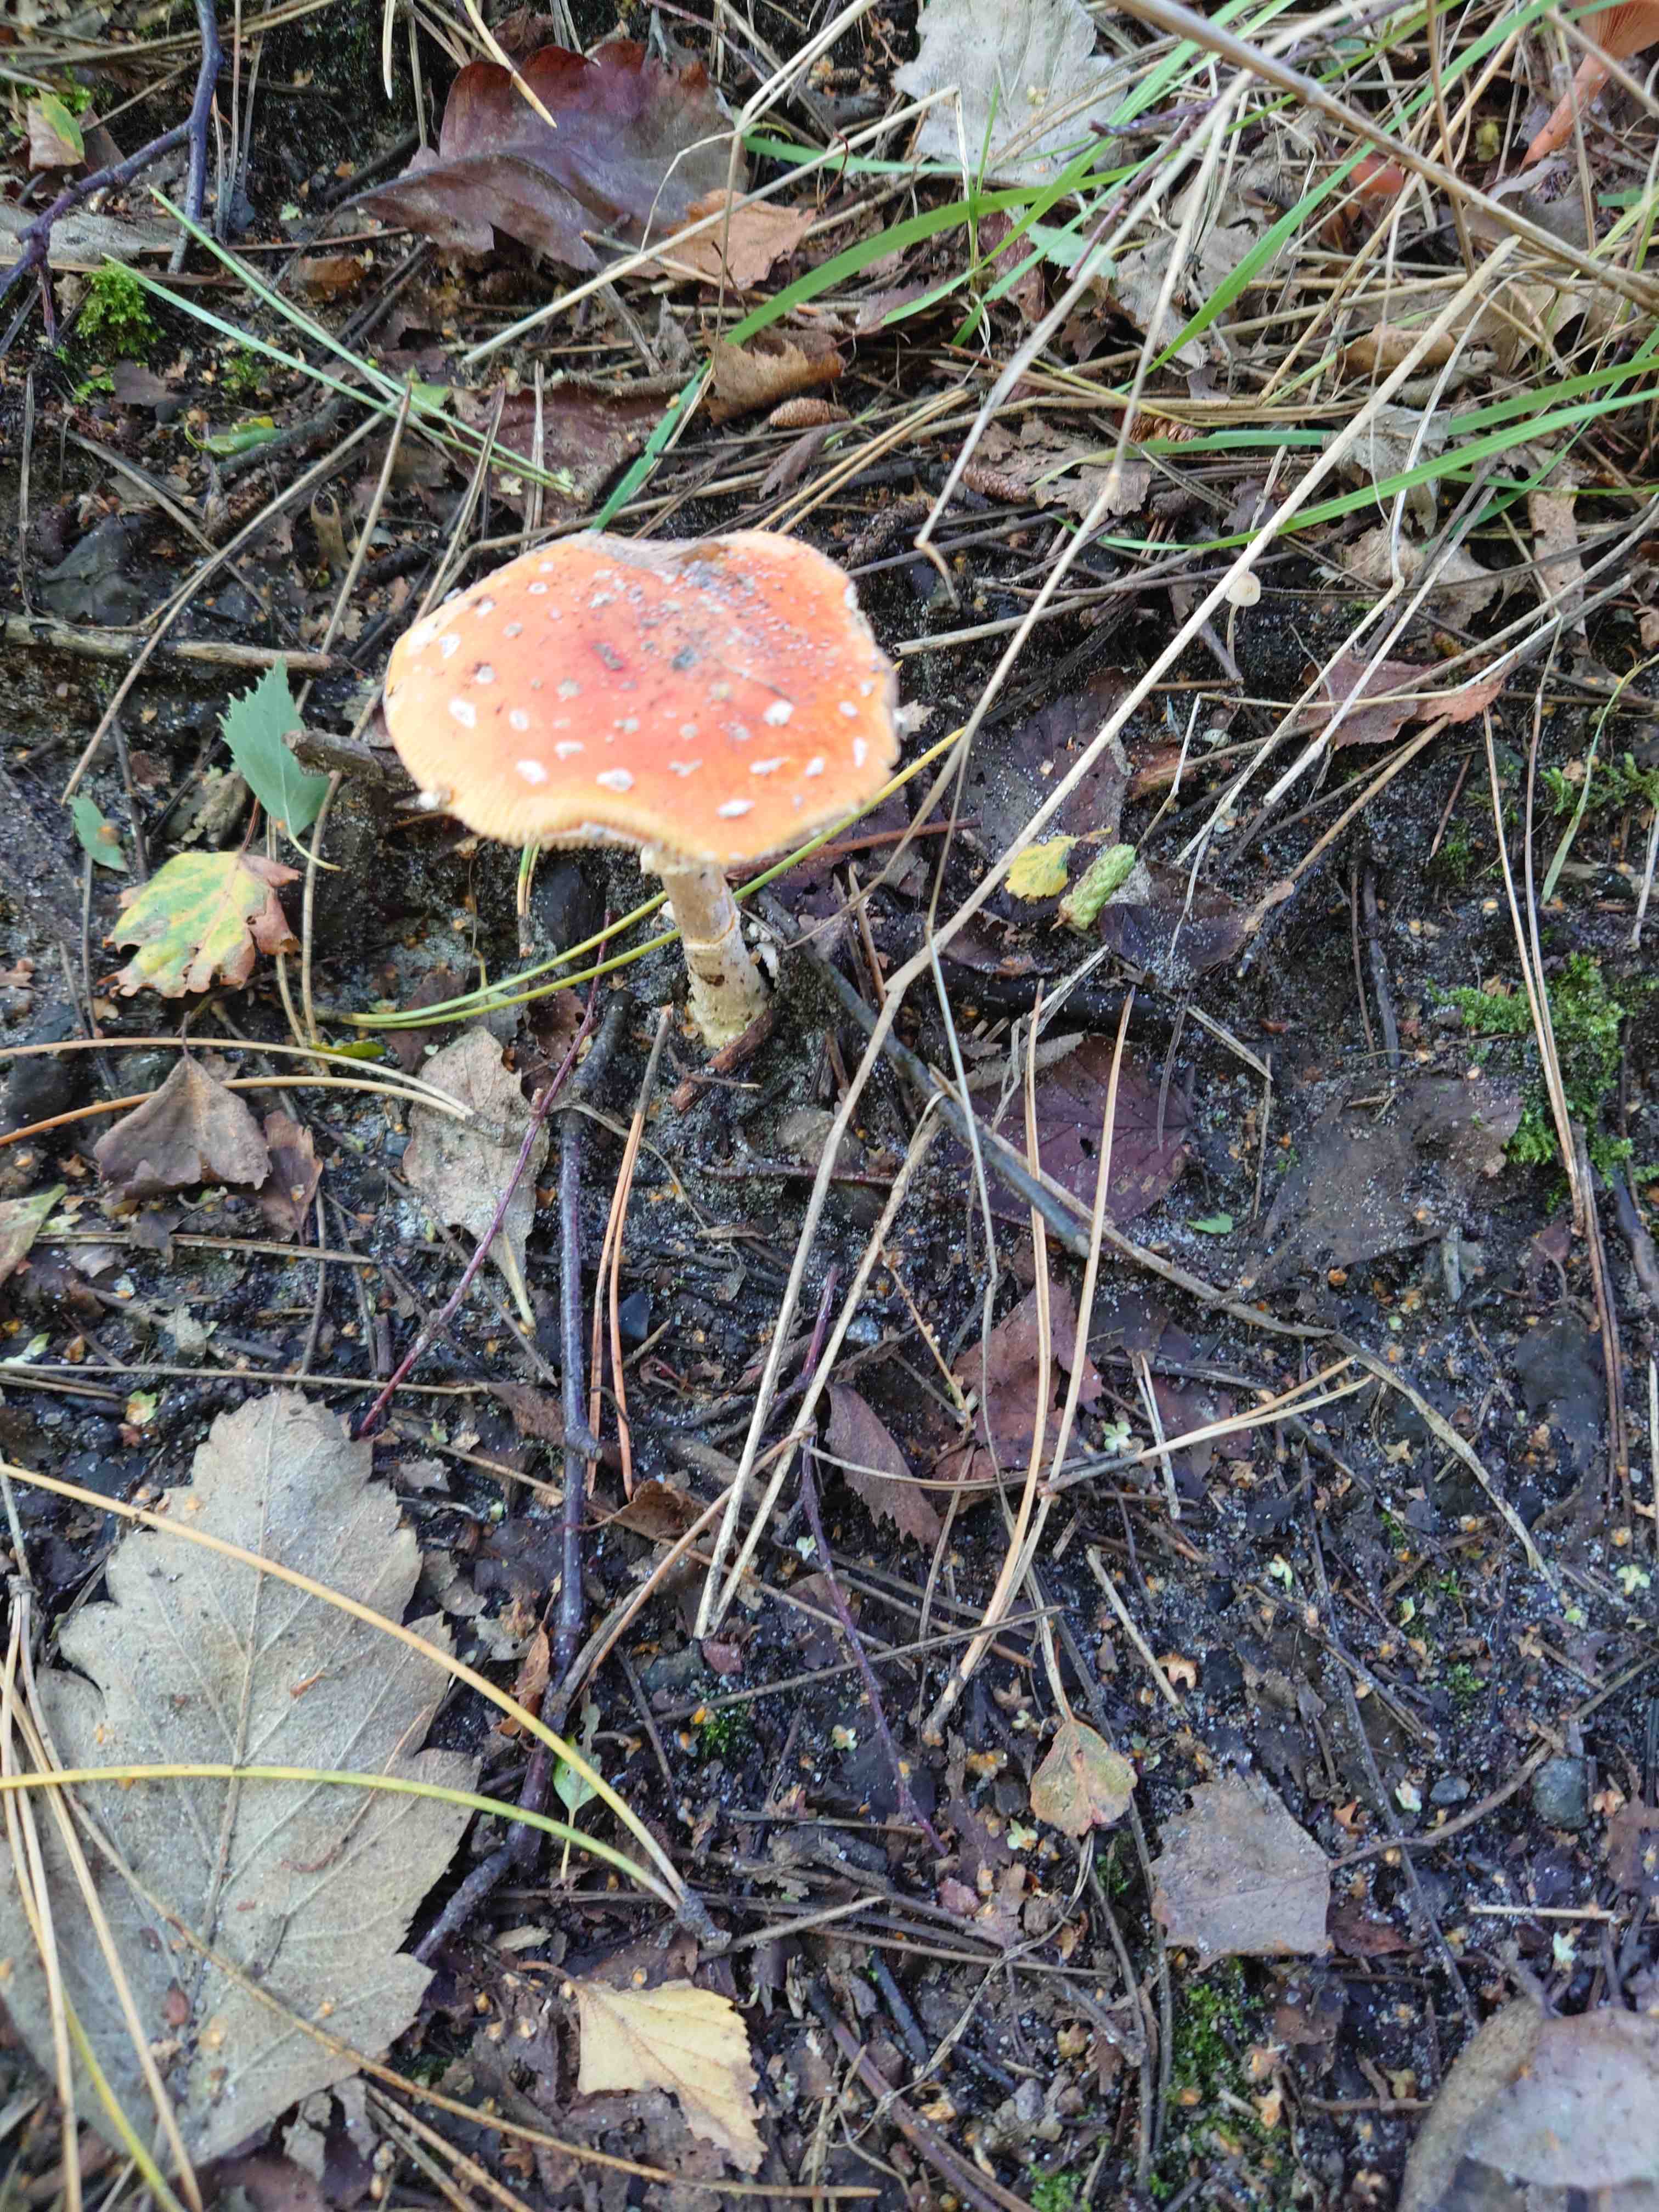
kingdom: Fungi
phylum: Basidiomycota
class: Agaricomycetes
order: Agaricales
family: Amanitaceae
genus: Amanita
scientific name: Amanita muscaria
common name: rød fluesvamp
